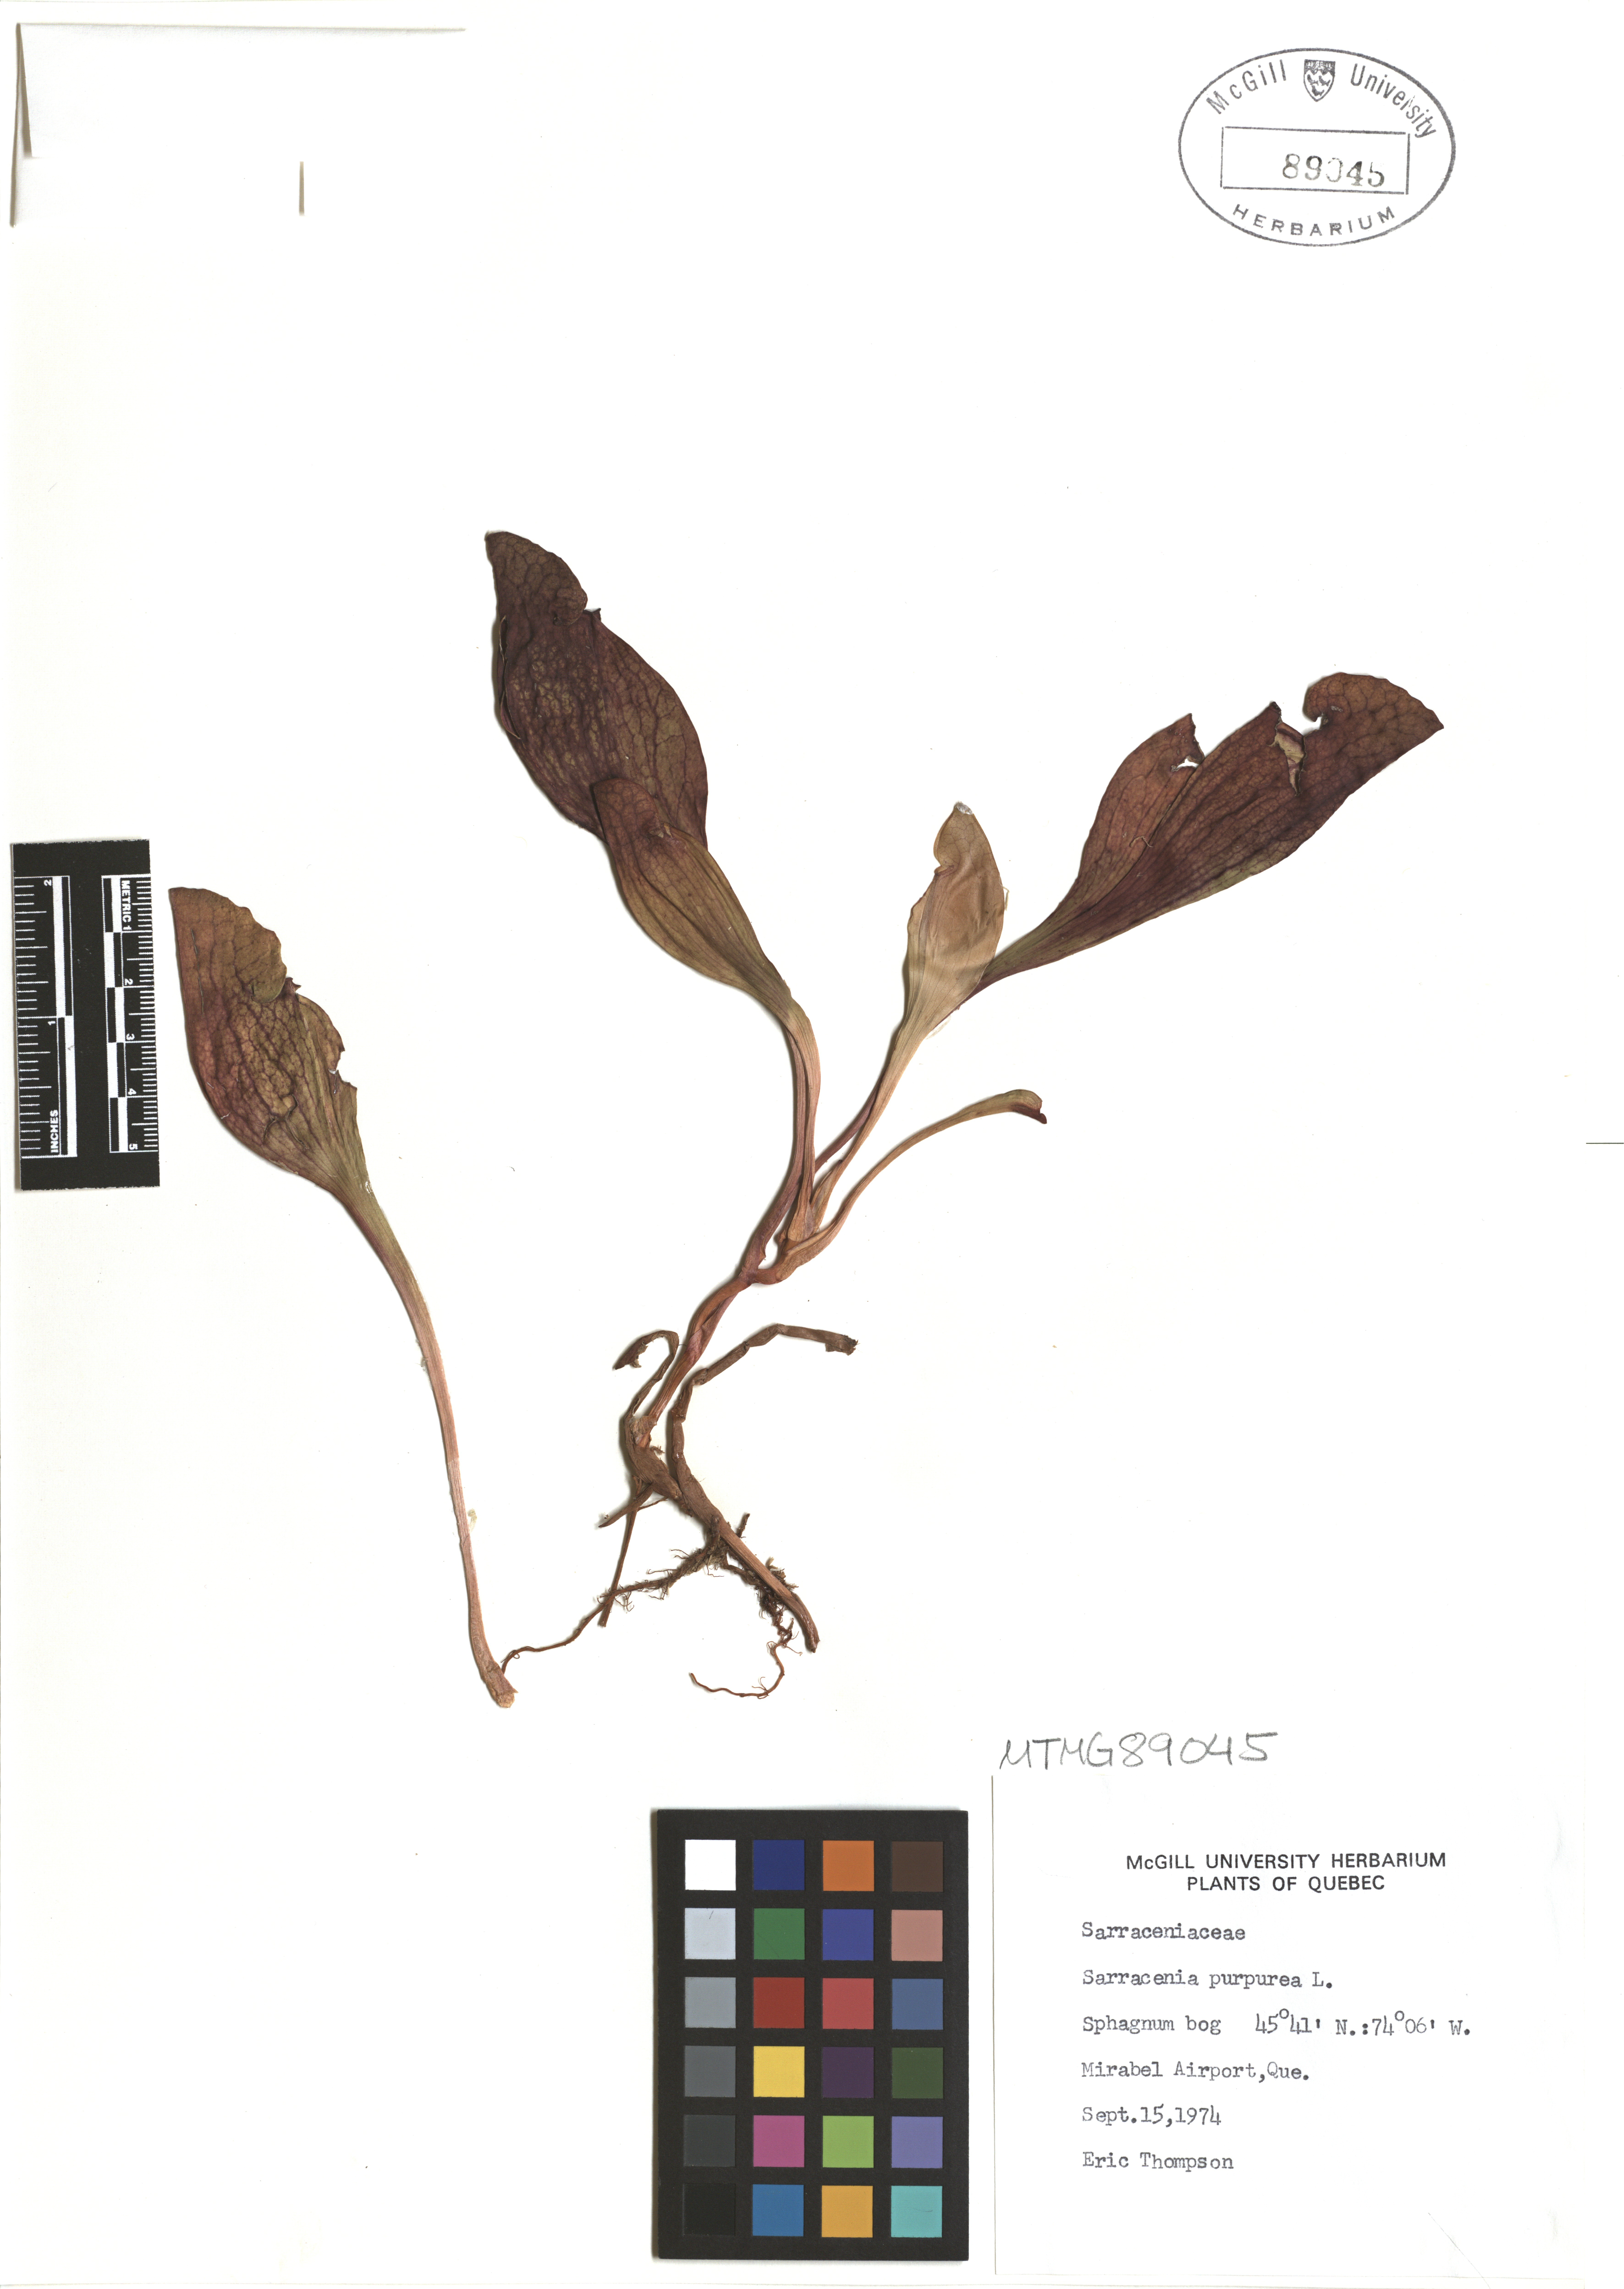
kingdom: Plantae
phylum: Tracheophyta
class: Magnoliopsida
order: Ericales
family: Sarraceniaceae
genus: Sarracenia
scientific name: Sarracenia purpurea
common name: Pitcherplant
